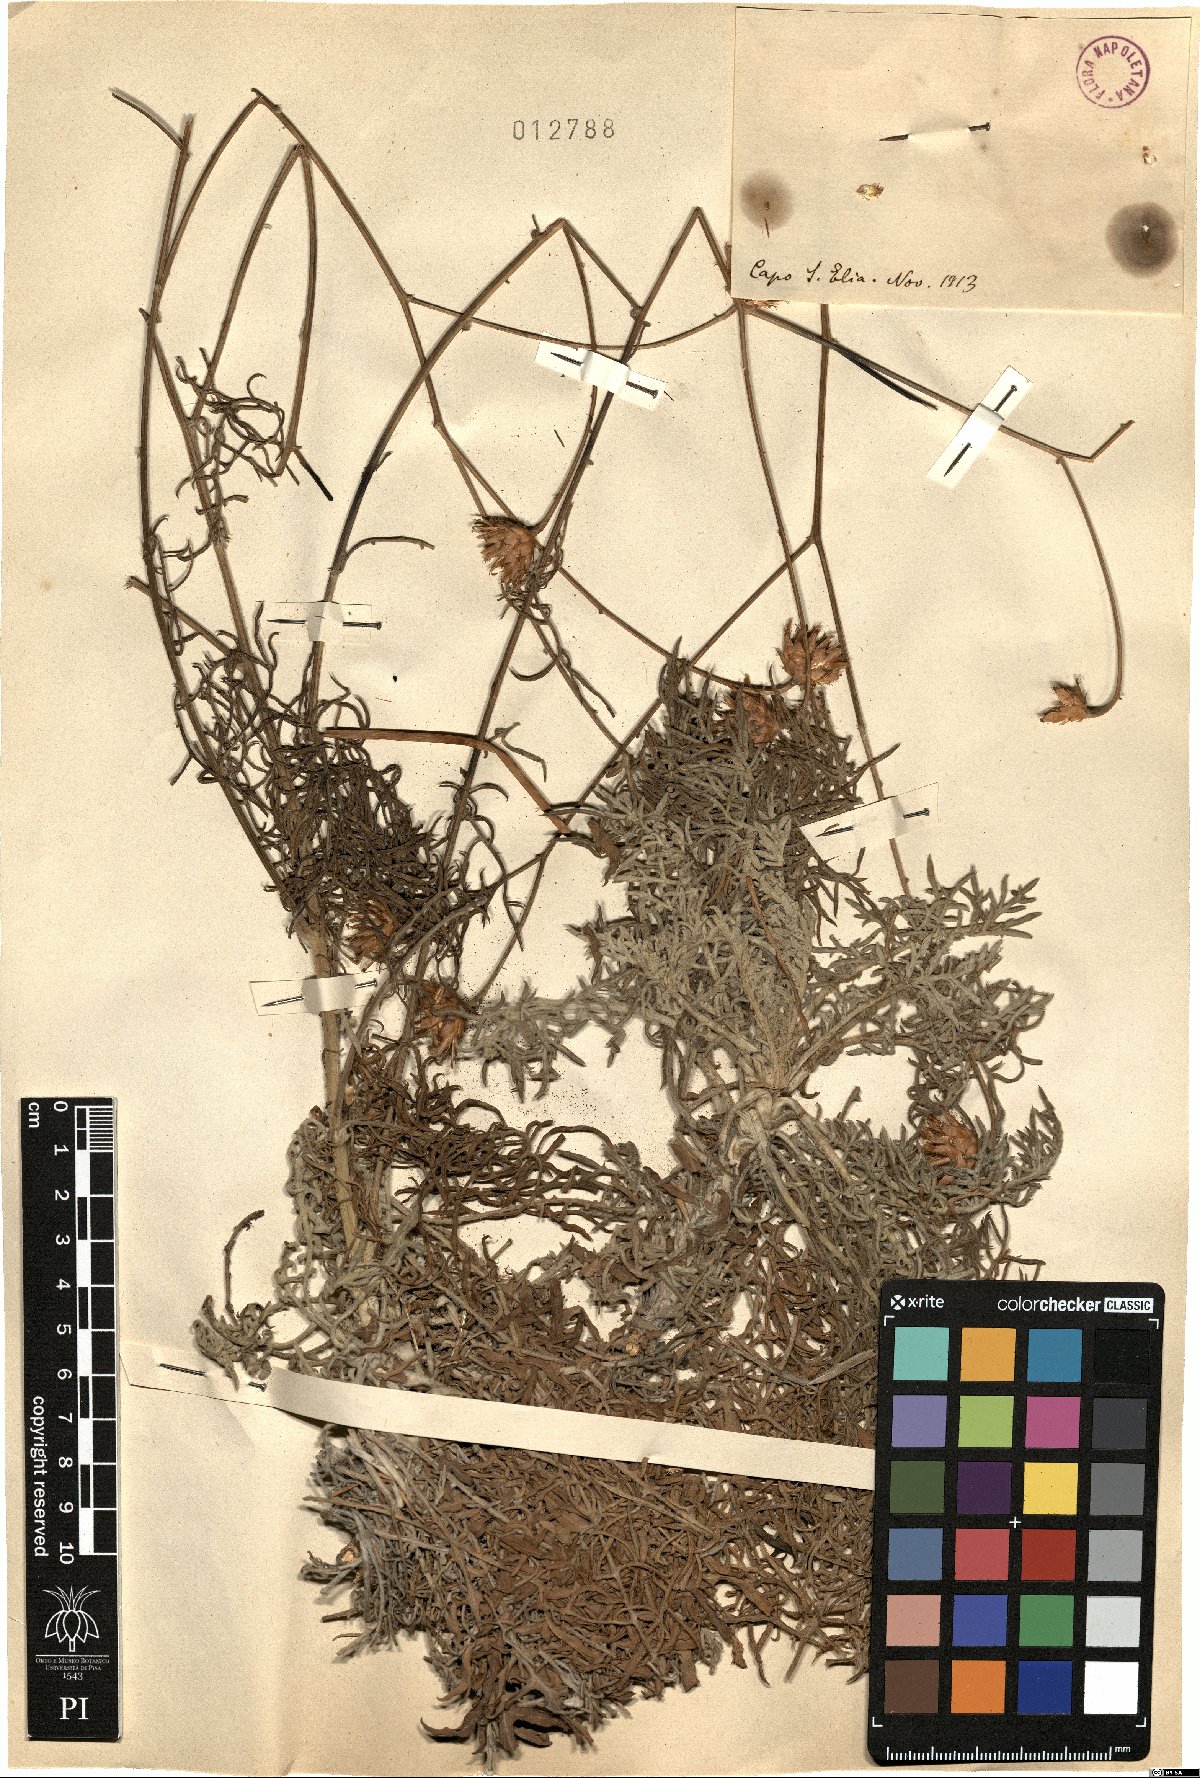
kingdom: Plantae
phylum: Tracheophyta
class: Magnoliopsida
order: Asterales
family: Asteraceae
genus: Centaurea
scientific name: Centaurea
